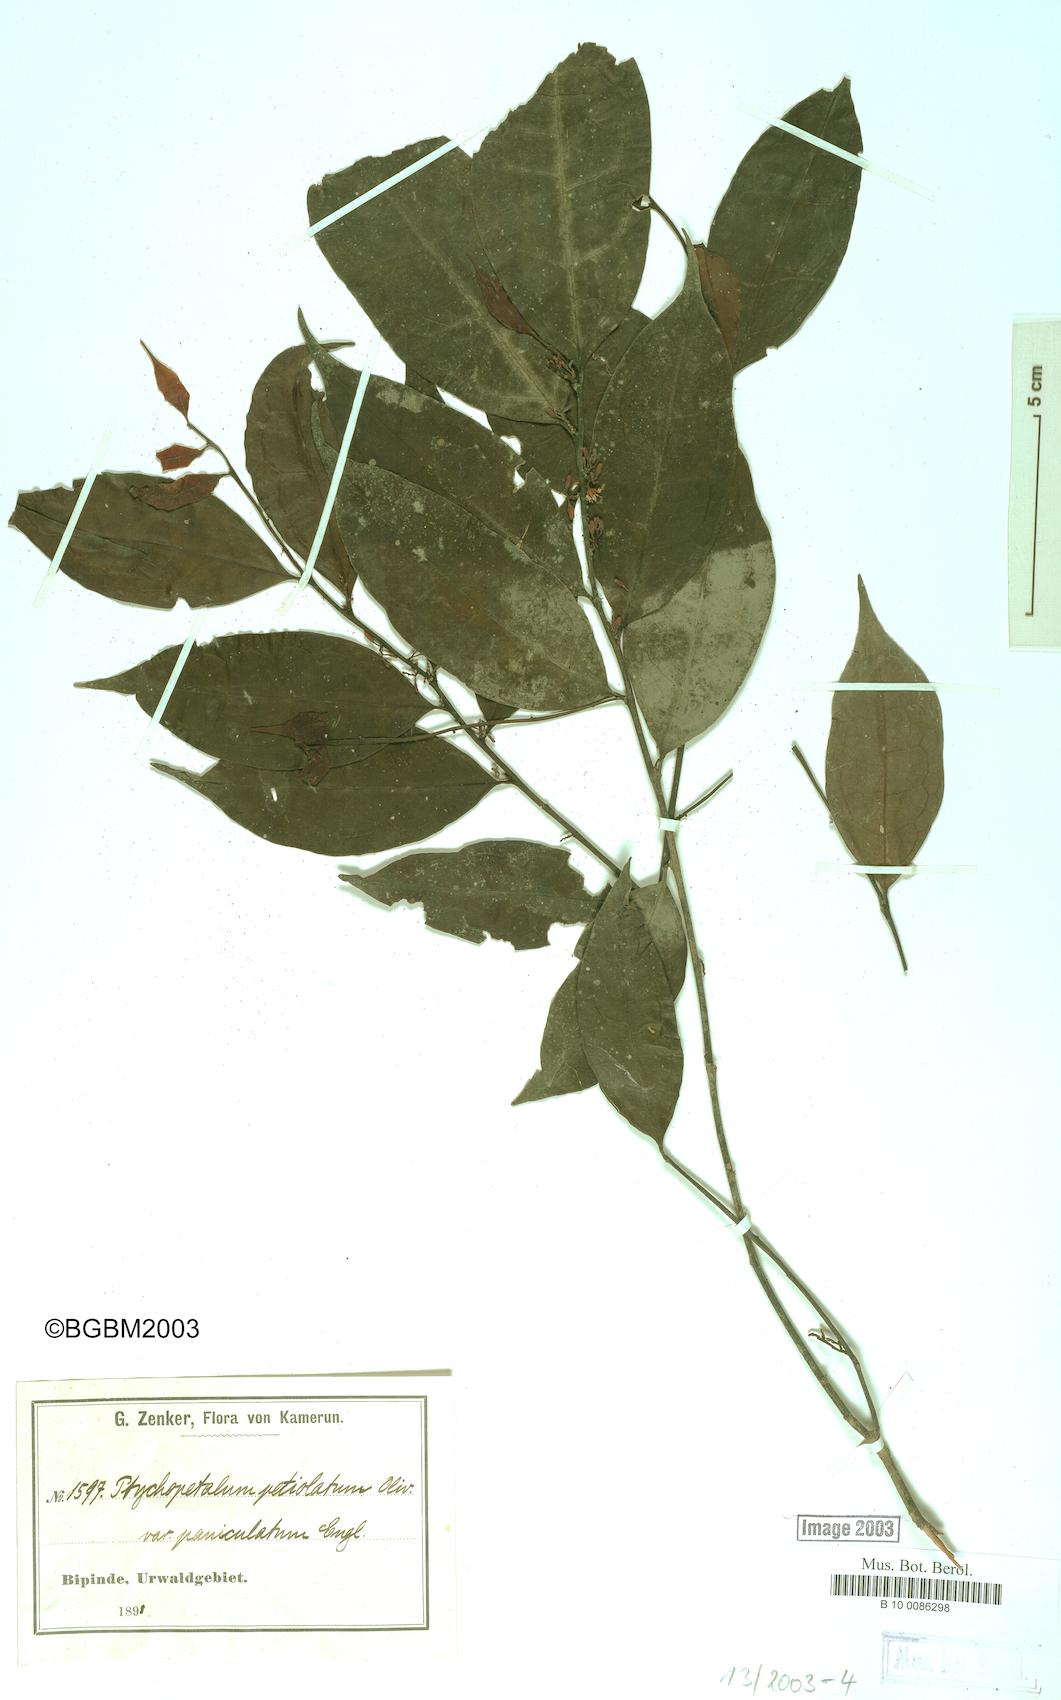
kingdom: Plantae
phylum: Tracheophyta
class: Magnoliopsida
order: Santalales
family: Olacaceae
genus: Ptychopetalum
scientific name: Ptychopetalum petiolatum
